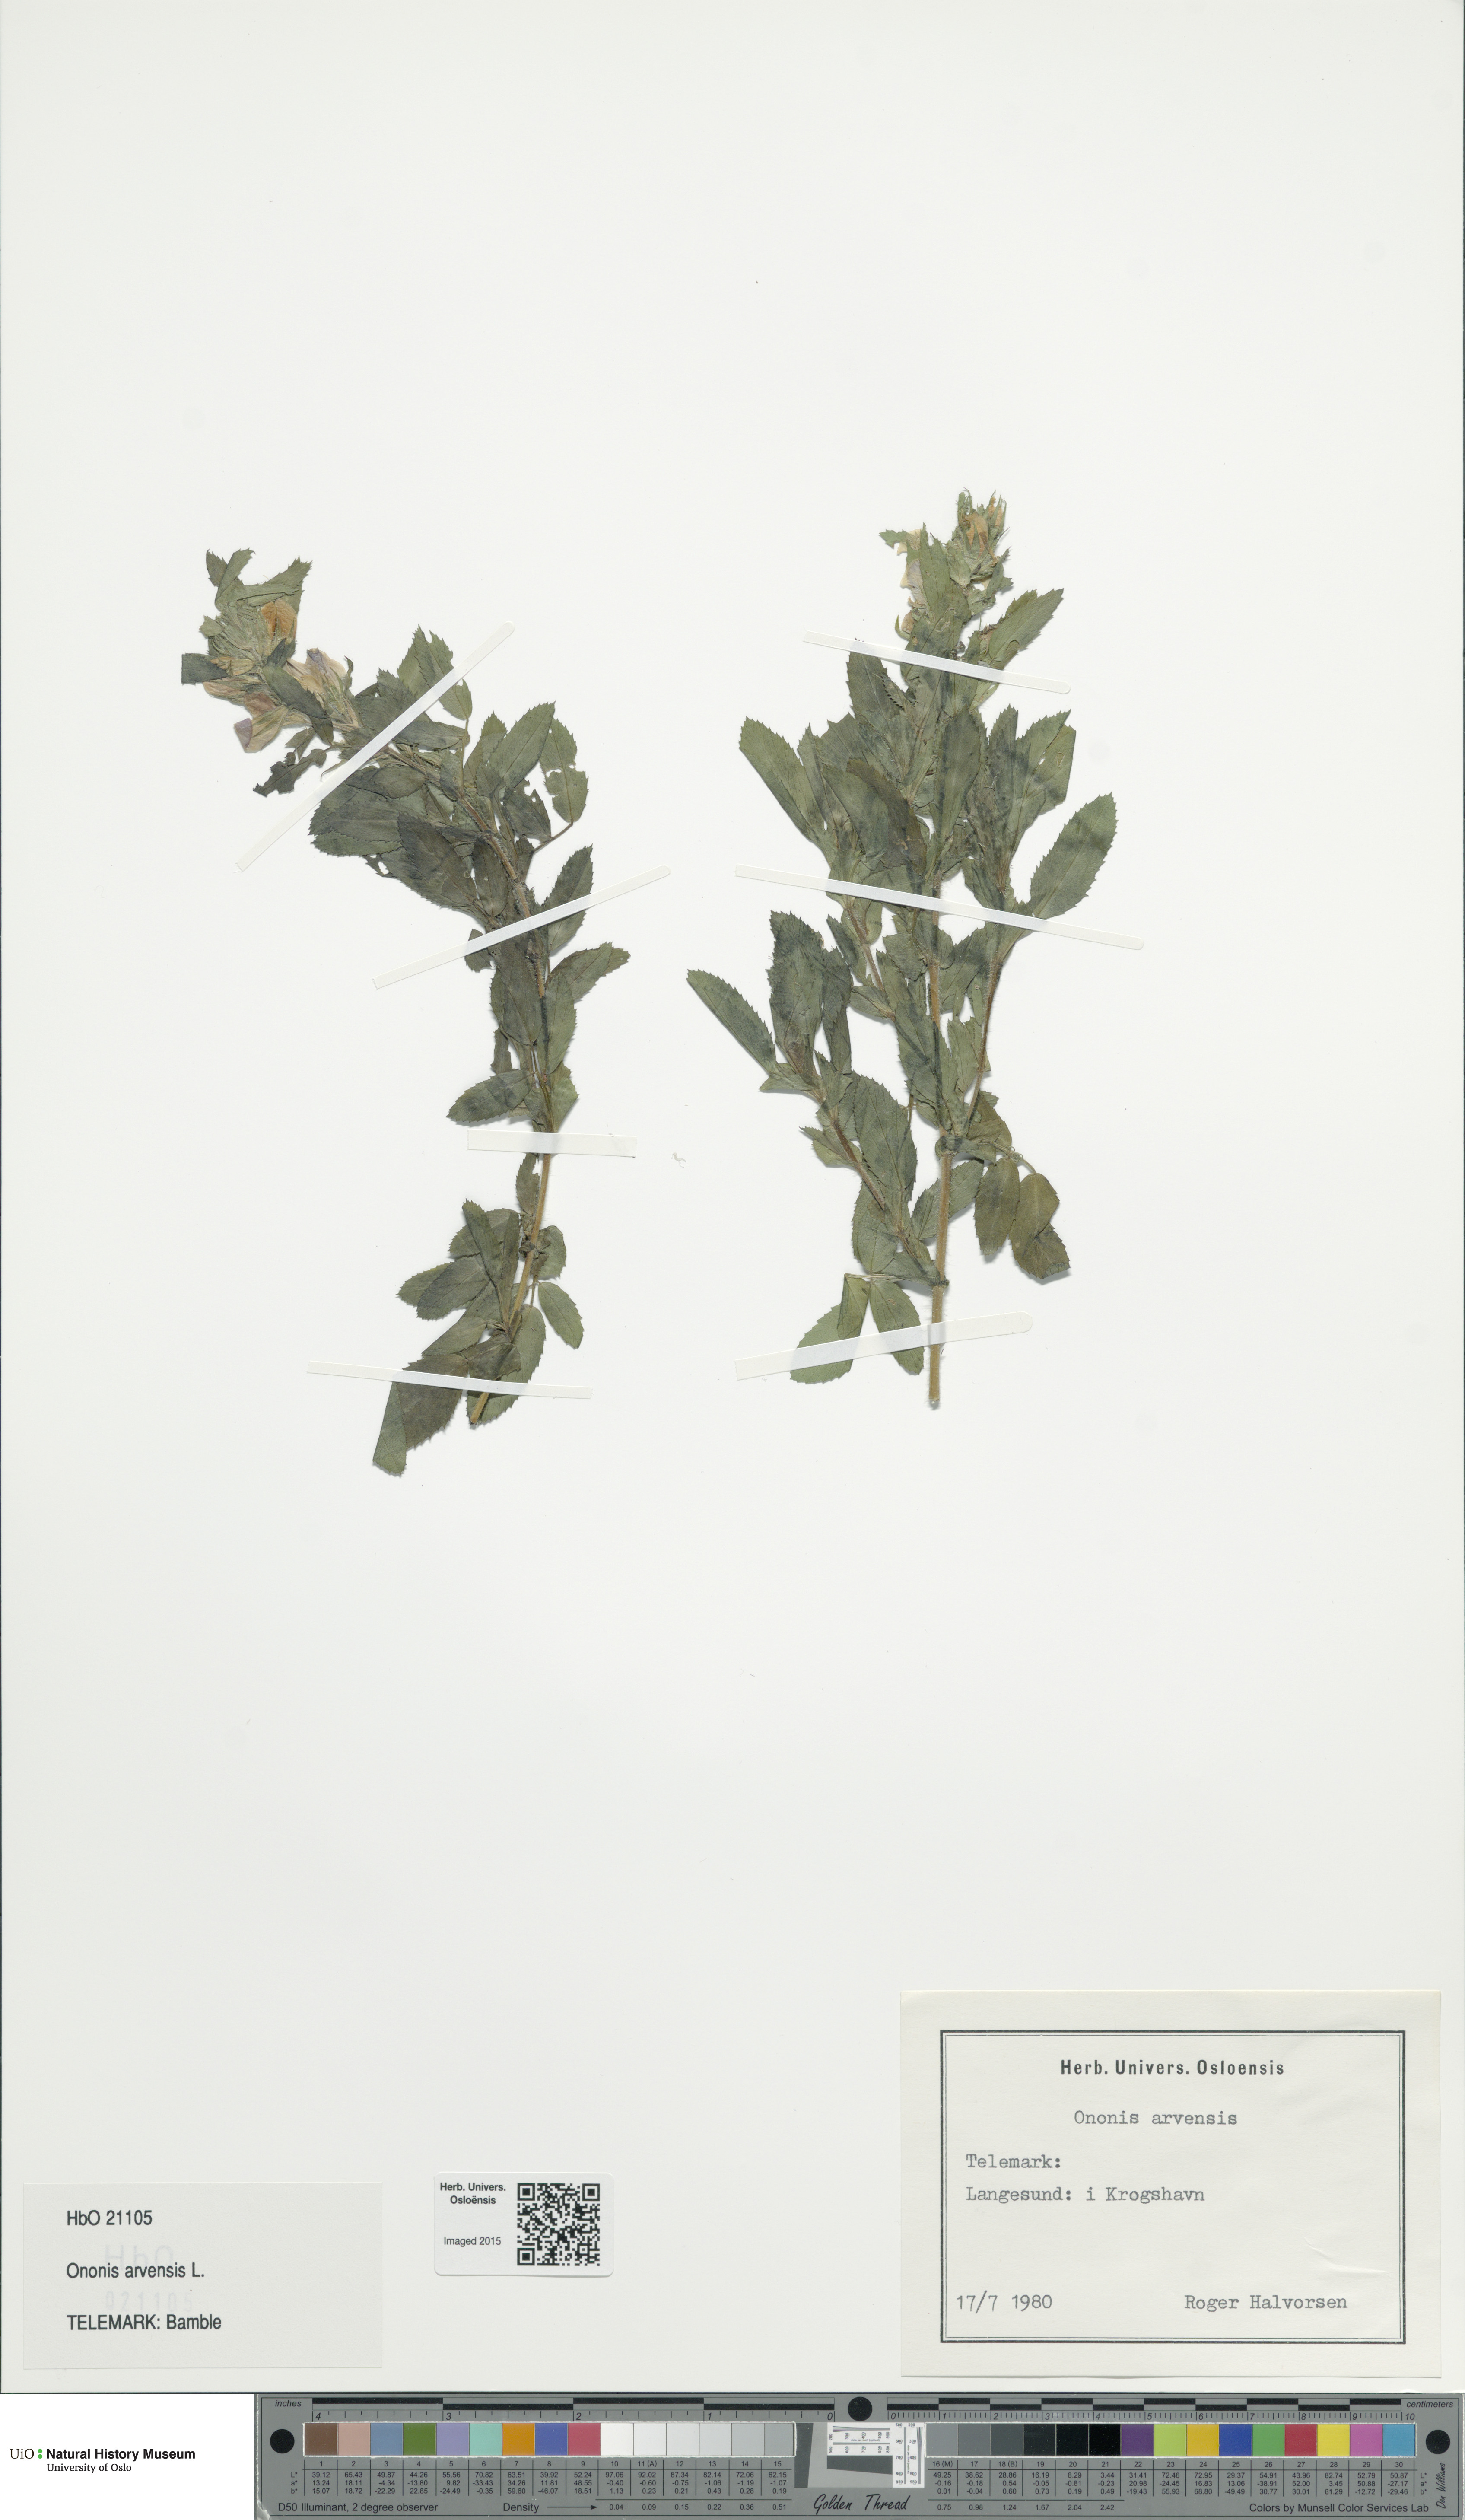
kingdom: Plantae
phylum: Tracheophyta
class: Magnoliopsida
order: Fabales
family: Fabaceae
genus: Ononis
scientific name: Ononis arvensis
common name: Field restharrow
